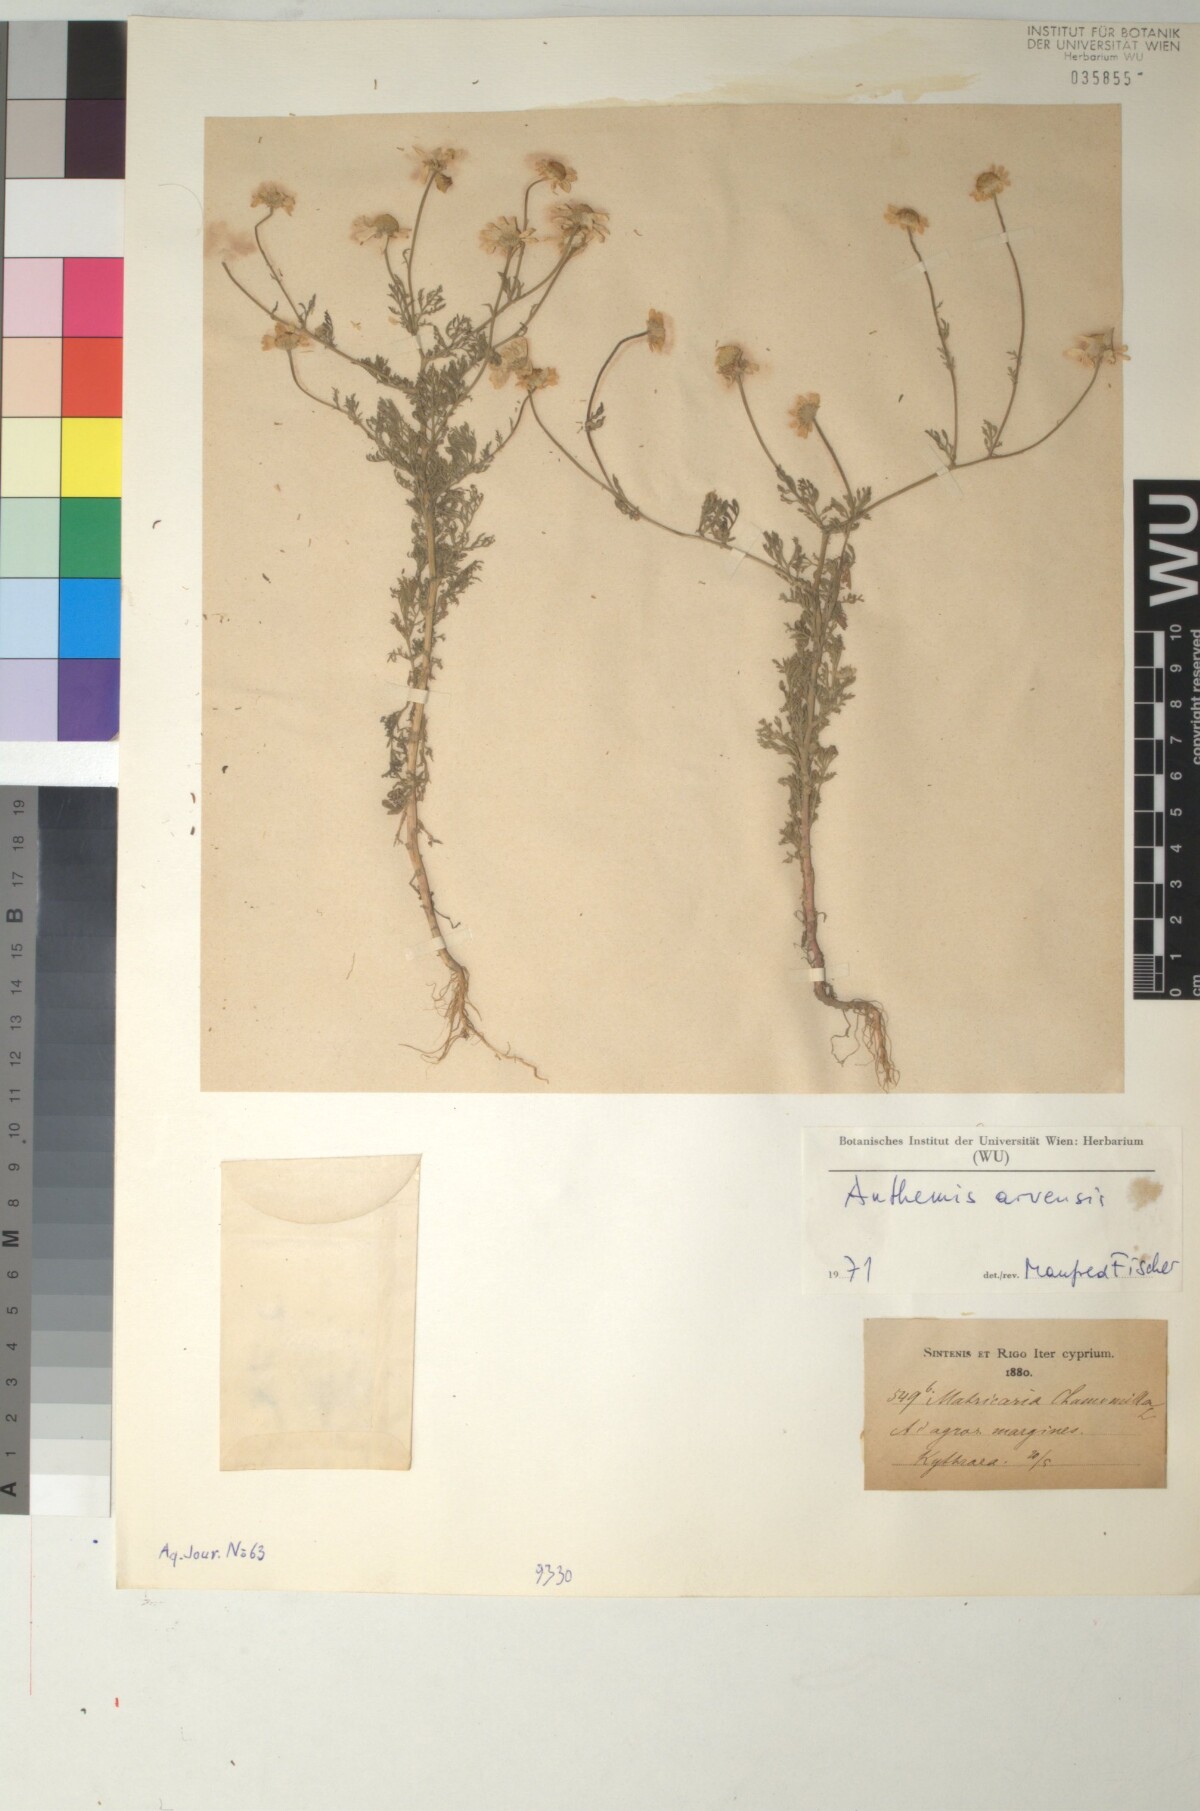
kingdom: Plantae
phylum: Tracheophyta
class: Magnoliopsida
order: Asterales
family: Asteraceae
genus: Anthemis
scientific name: Anthemis arvensis
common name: Corn chamomile
